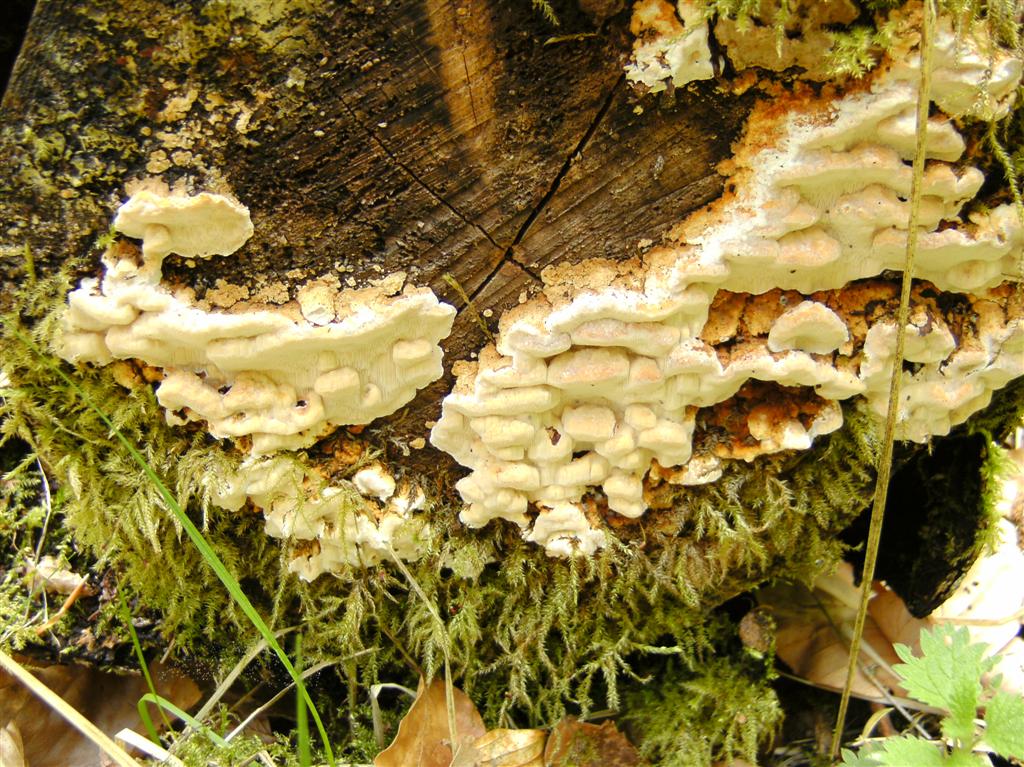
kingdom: Fungi
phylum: Basidiomycota
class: Agaricomycetes
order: Polyporales
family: Fomitopsidaceae
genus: Neoantrodia
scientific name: Neoantrodia serialis
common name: række-sejporesvamp
